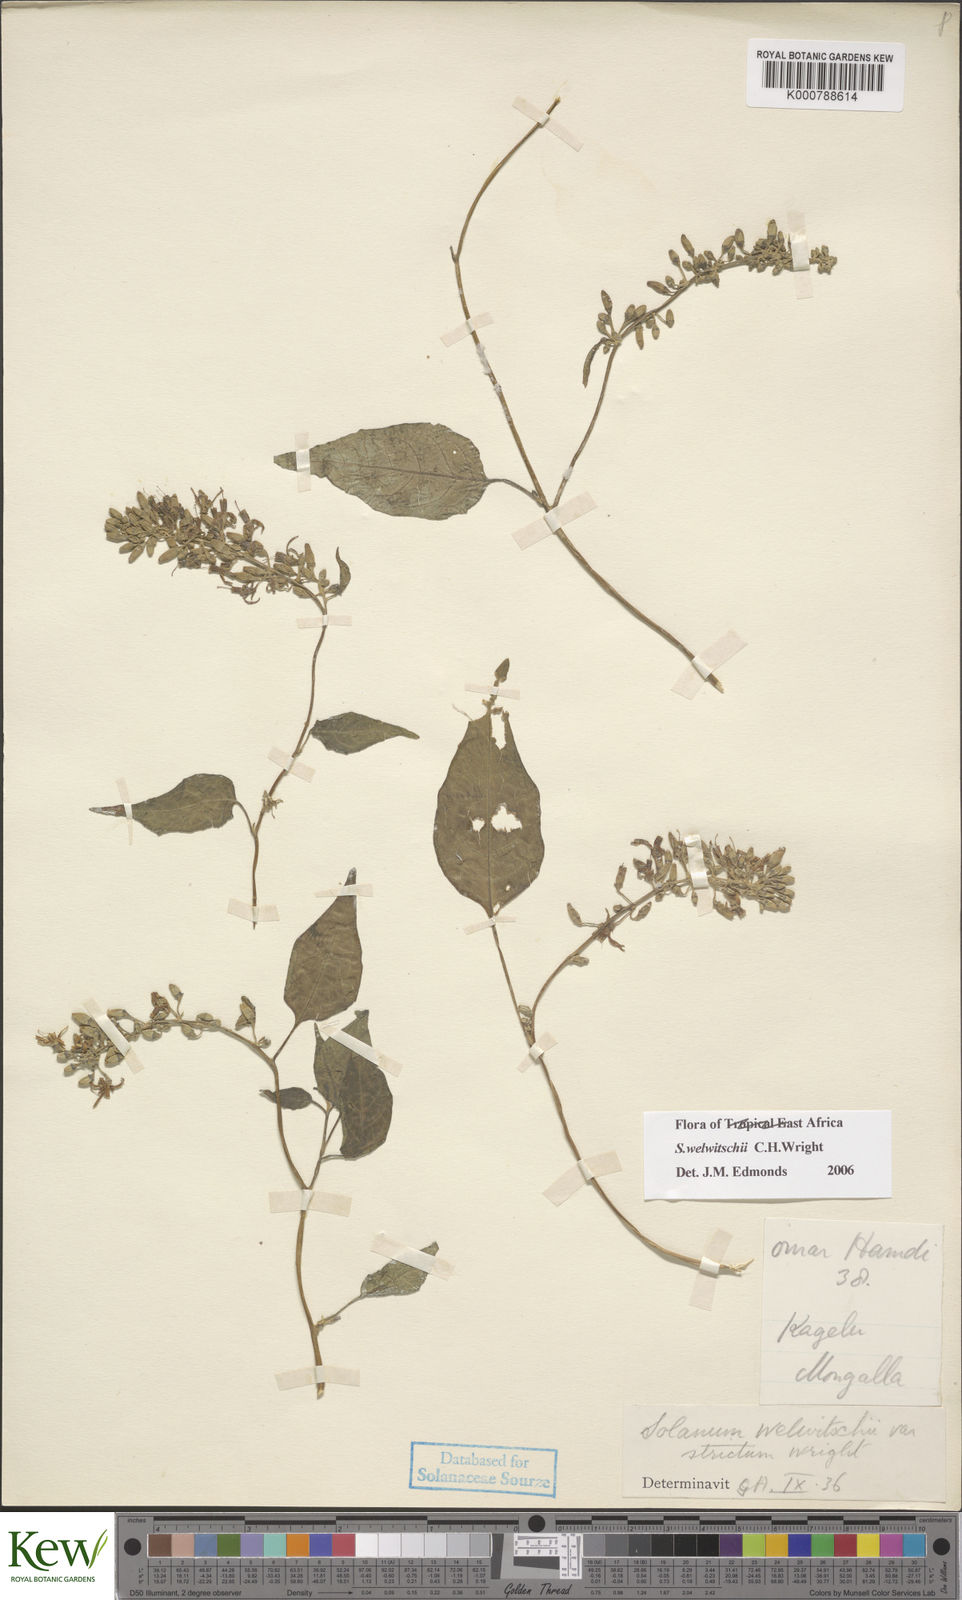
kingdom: Plantae
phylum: Tracheophyta
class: Magnoliopsida
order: Solanales
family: Solanaceae
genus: Solanum
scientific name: Solanum terminale
